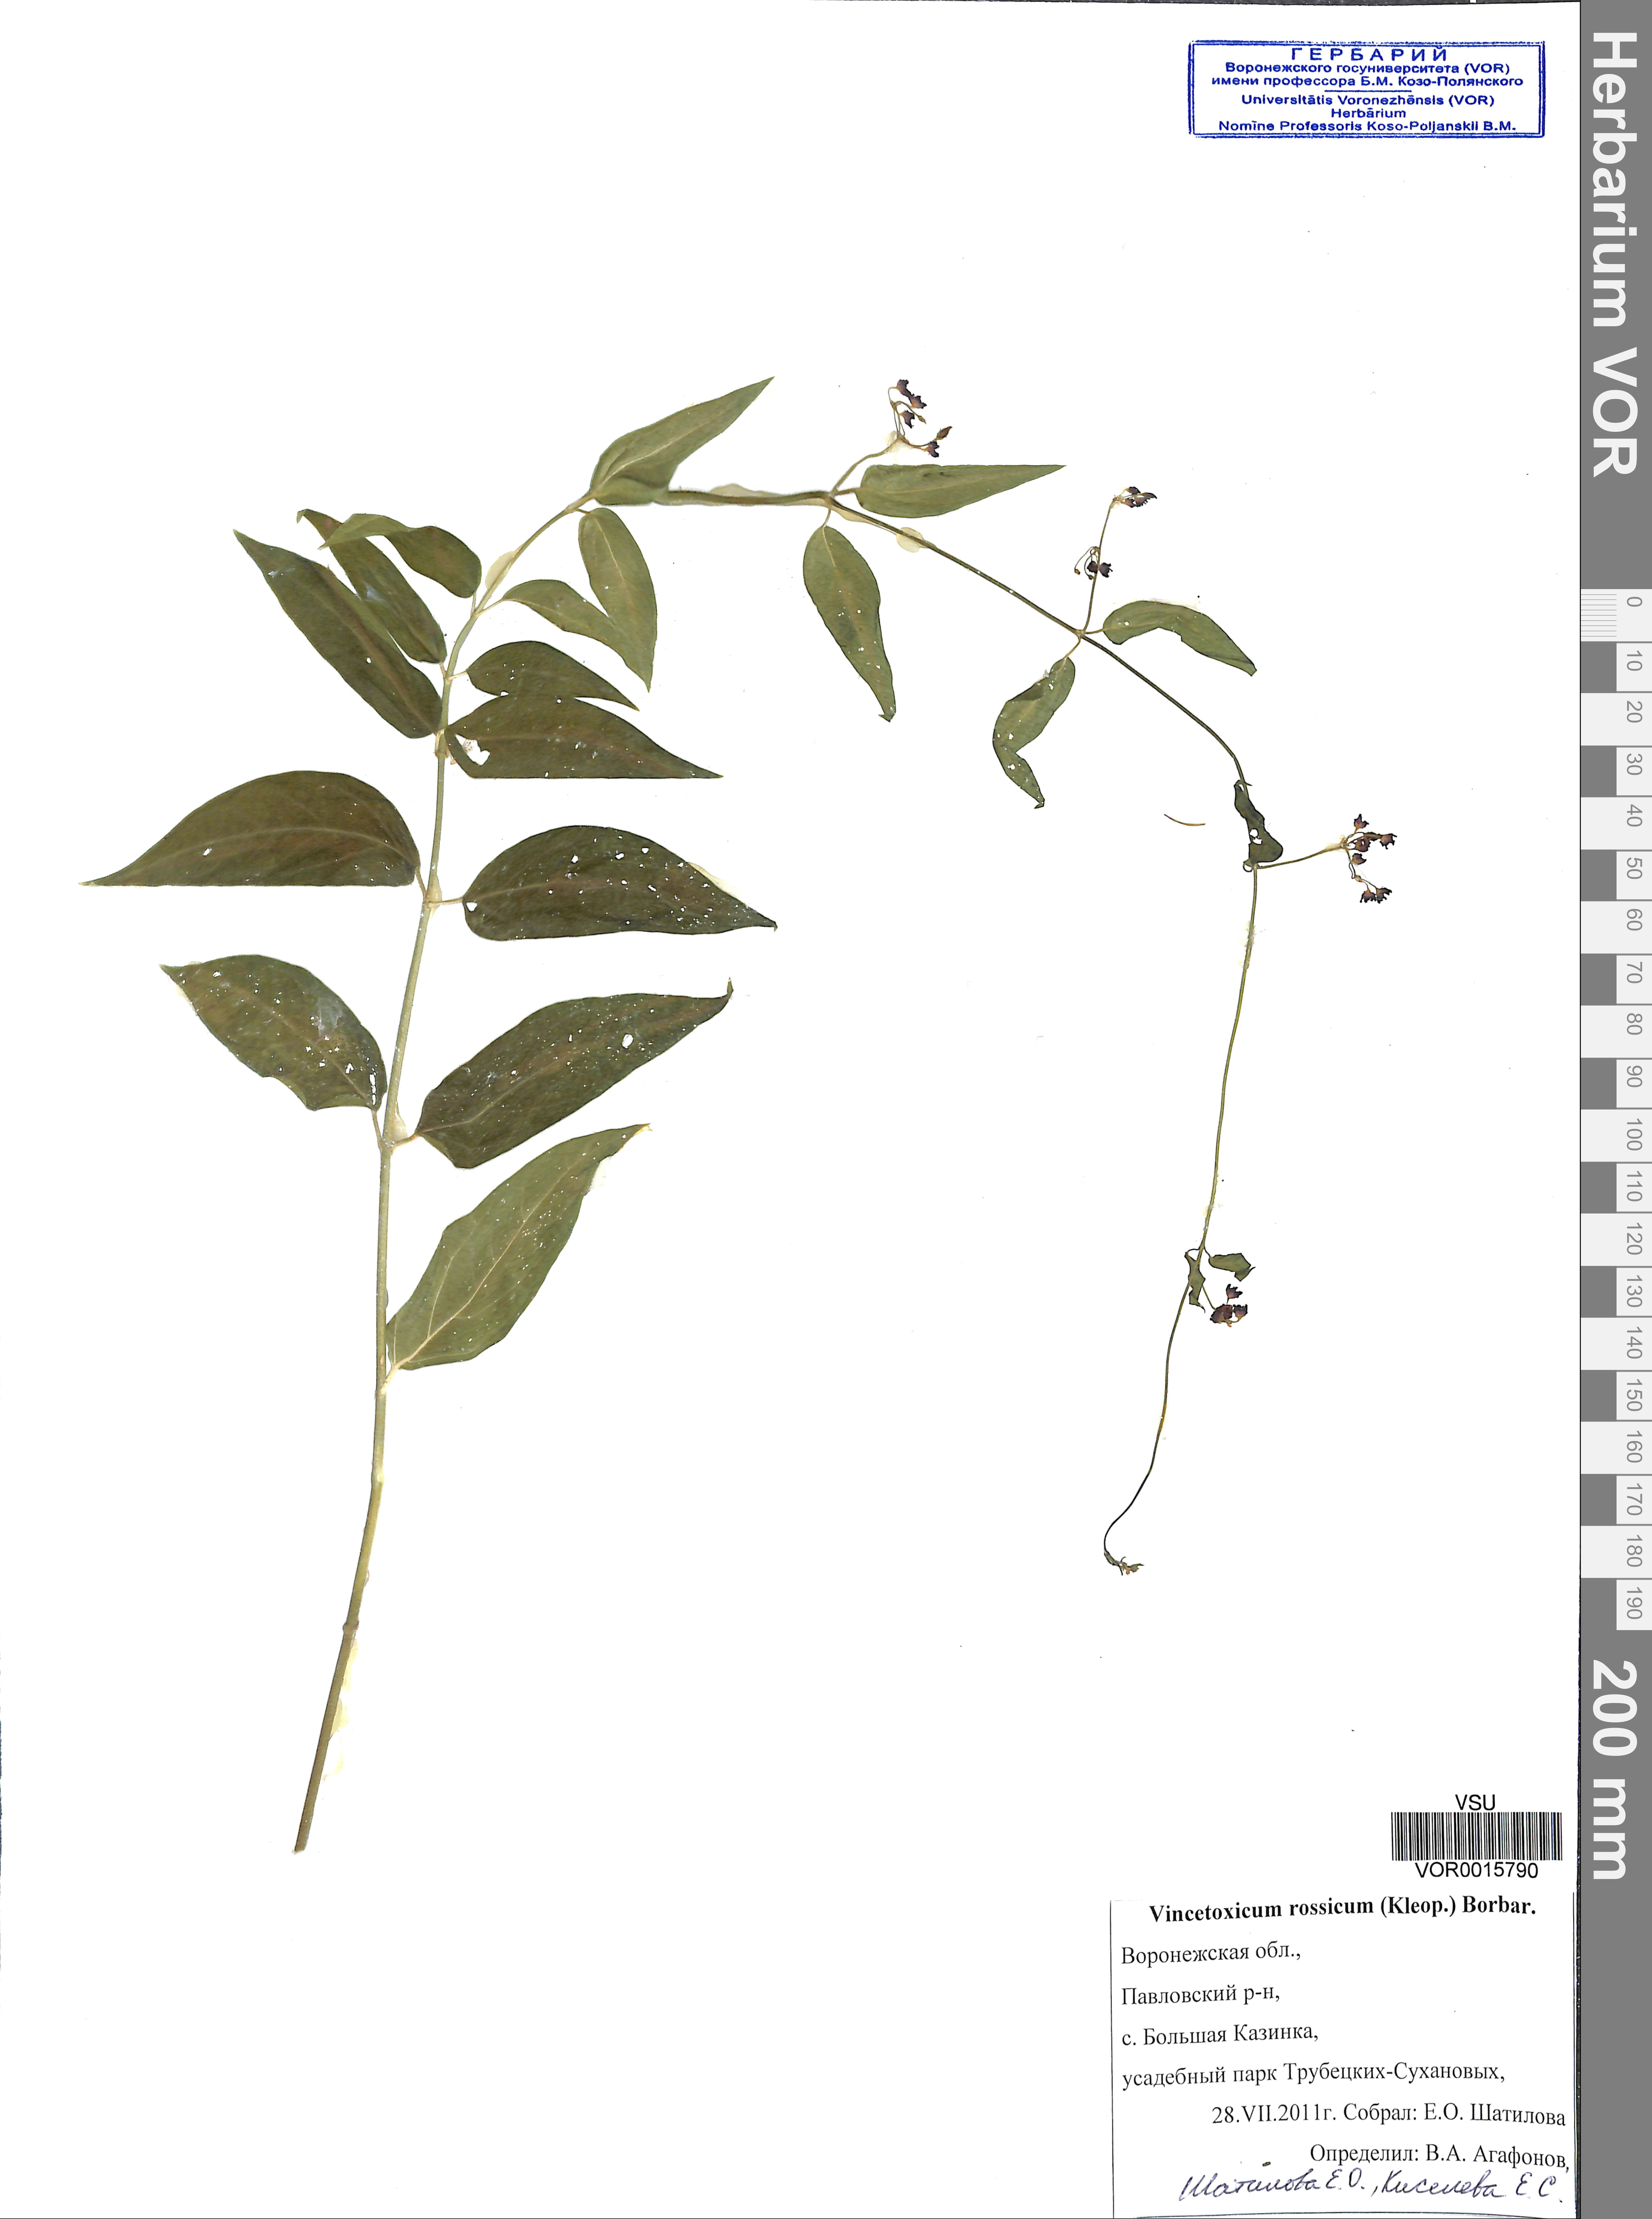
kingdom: Plantae
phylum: Tracheophyta
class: Magnoliopsida
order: Gentianales
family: Apocynaceae
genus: Vincetoxicum
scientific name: Vincetoxicum rossicum
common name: Dog-strangling vine
